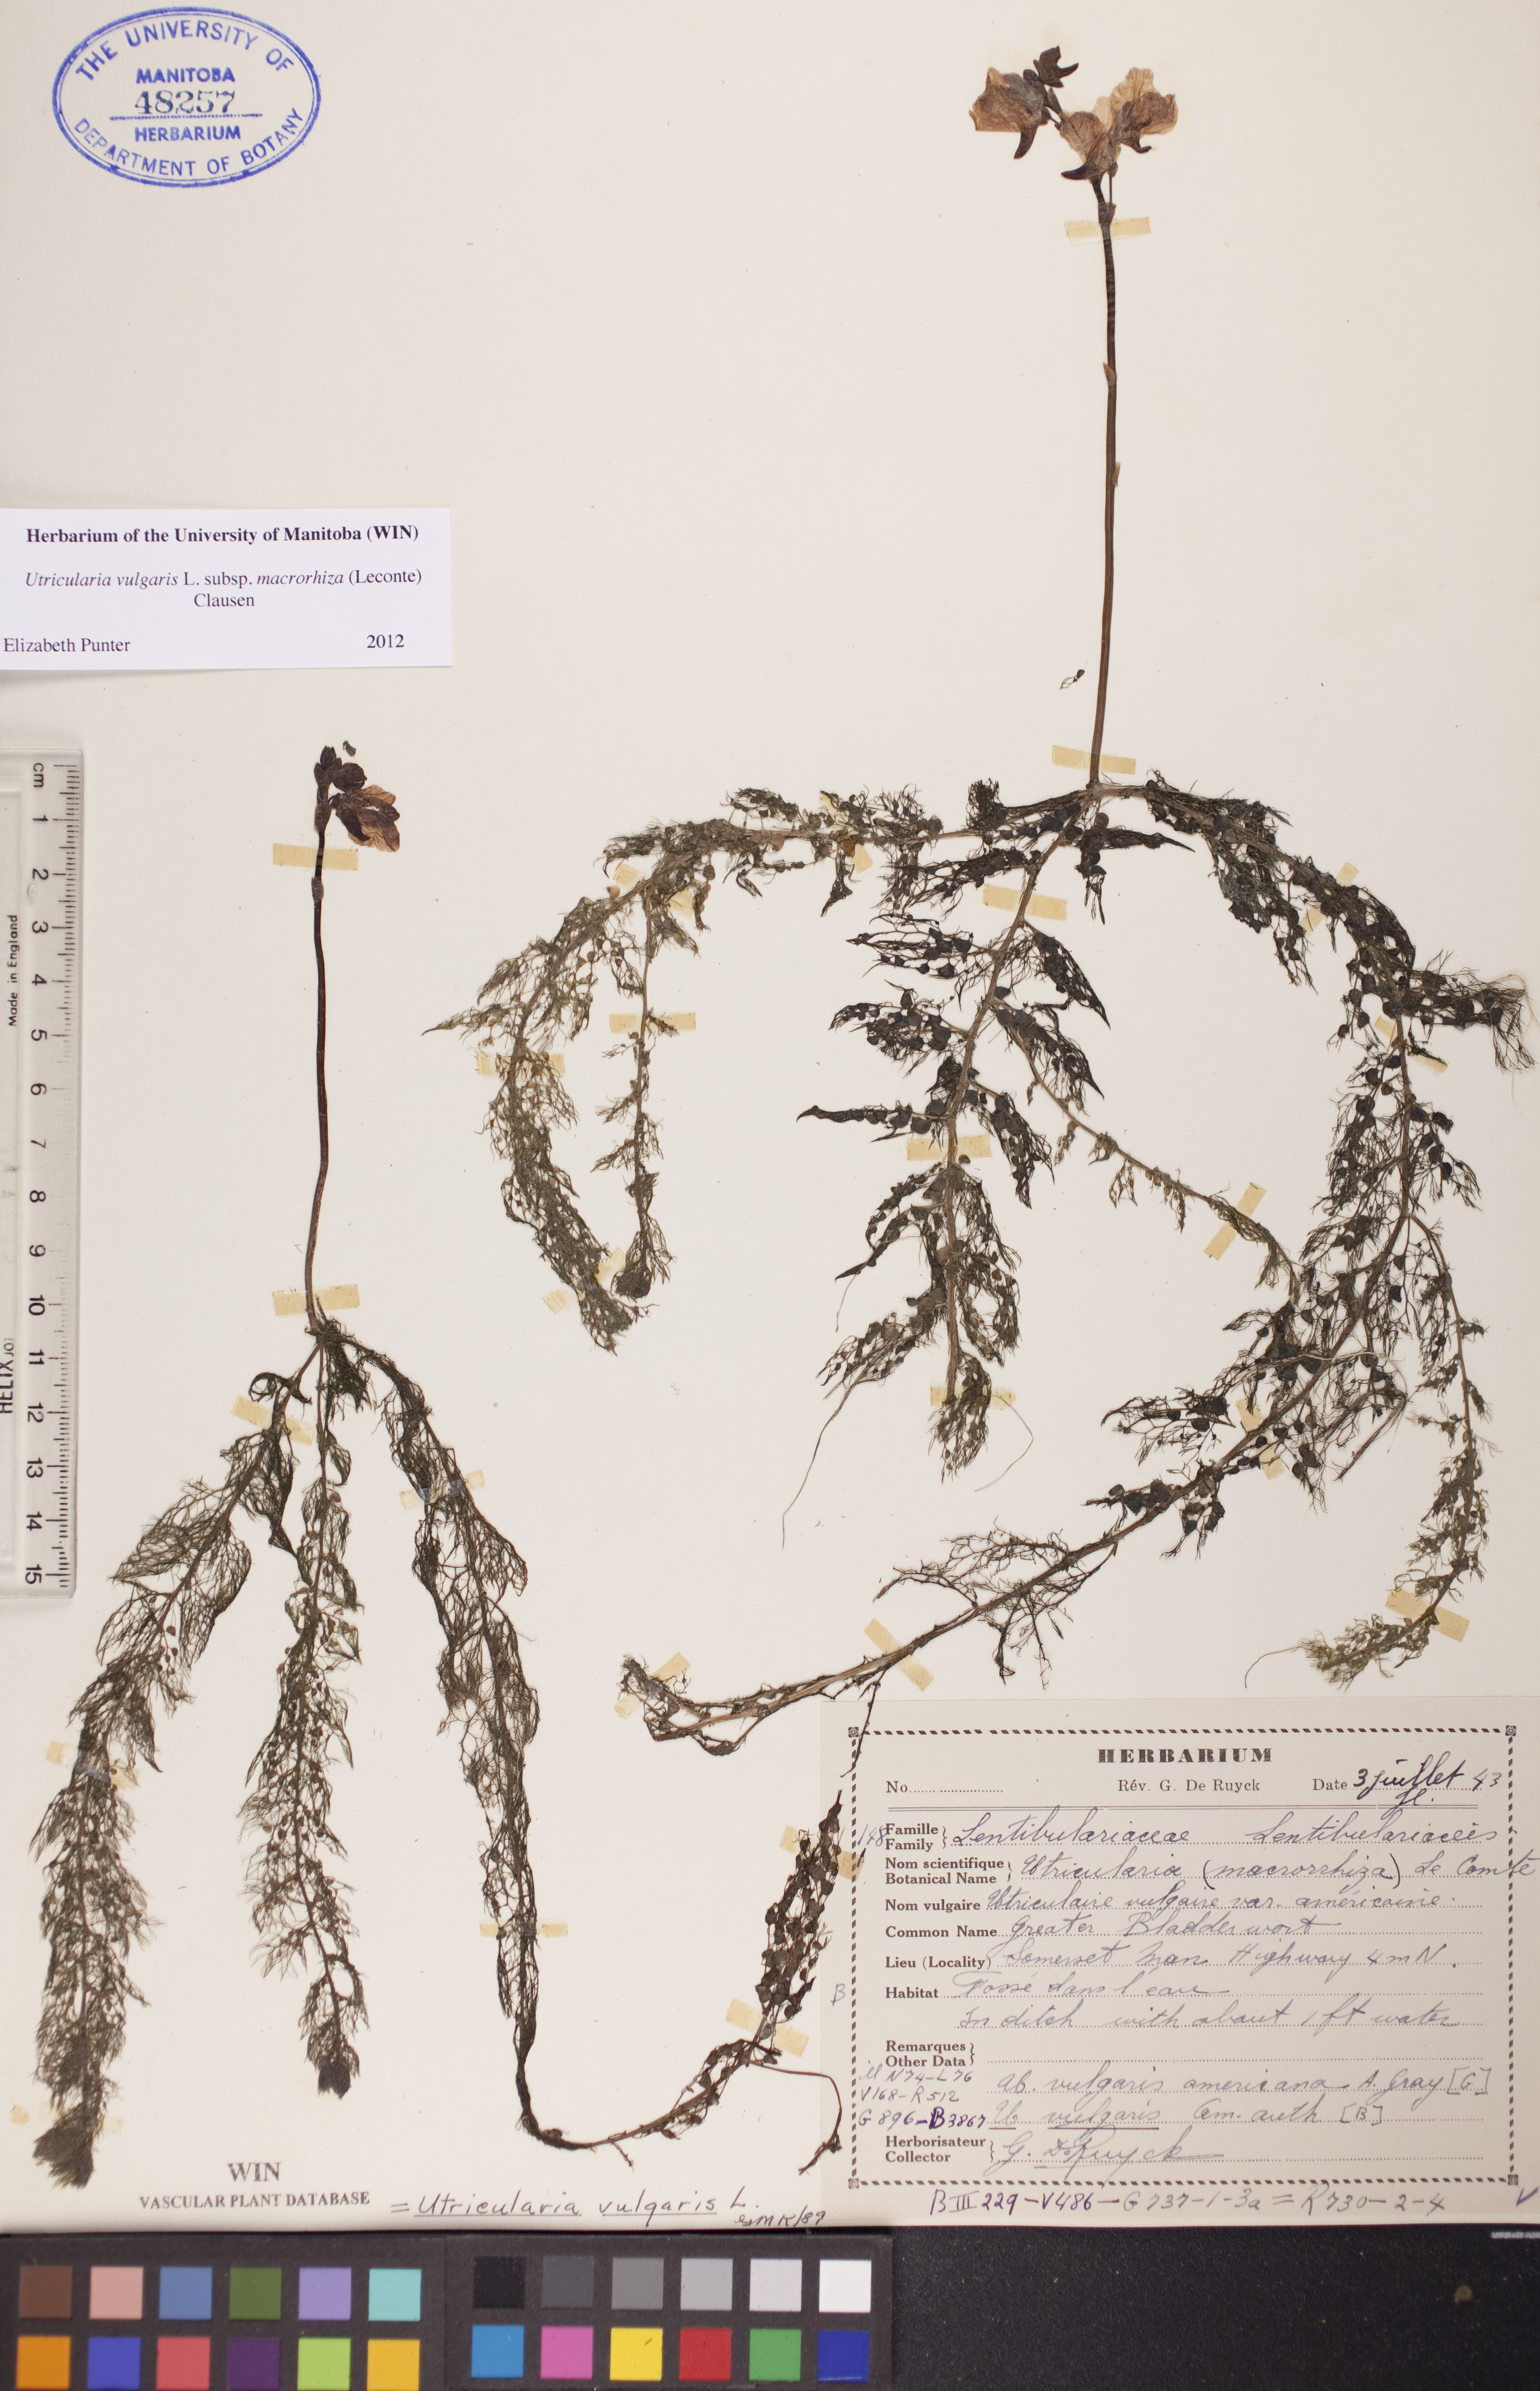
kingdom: Plantae
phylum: Tracheophyta
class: Magnoliopsida
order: Lamiales
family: Lentibulariaceae
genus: Utricularia
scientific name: Utricularia macrorhiza
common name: Common bladderwort
